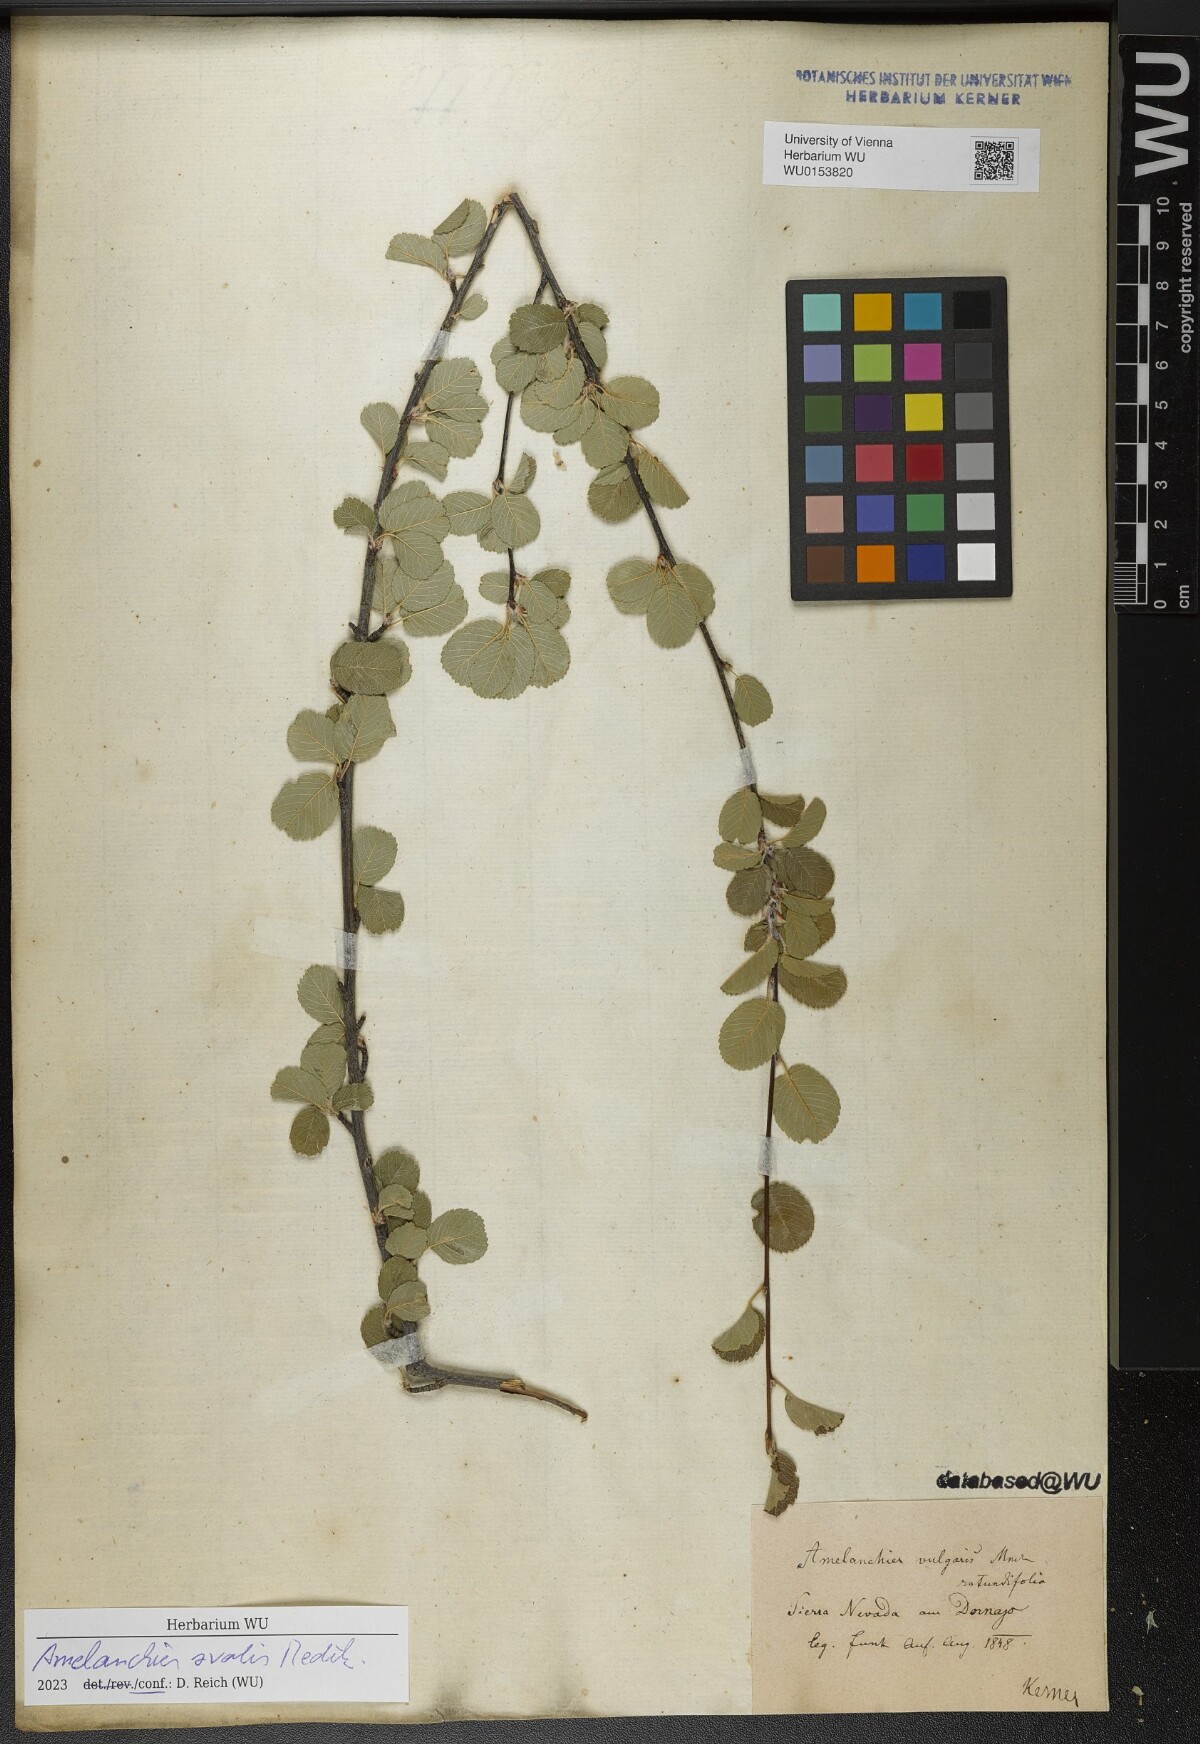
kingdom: Plantae
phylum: Tracheophyta
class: Magnoliopsida
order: Rosales
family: Rosaceae
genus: Amelanchier
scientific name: Amelanchier ovalis
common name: Serviceberry
